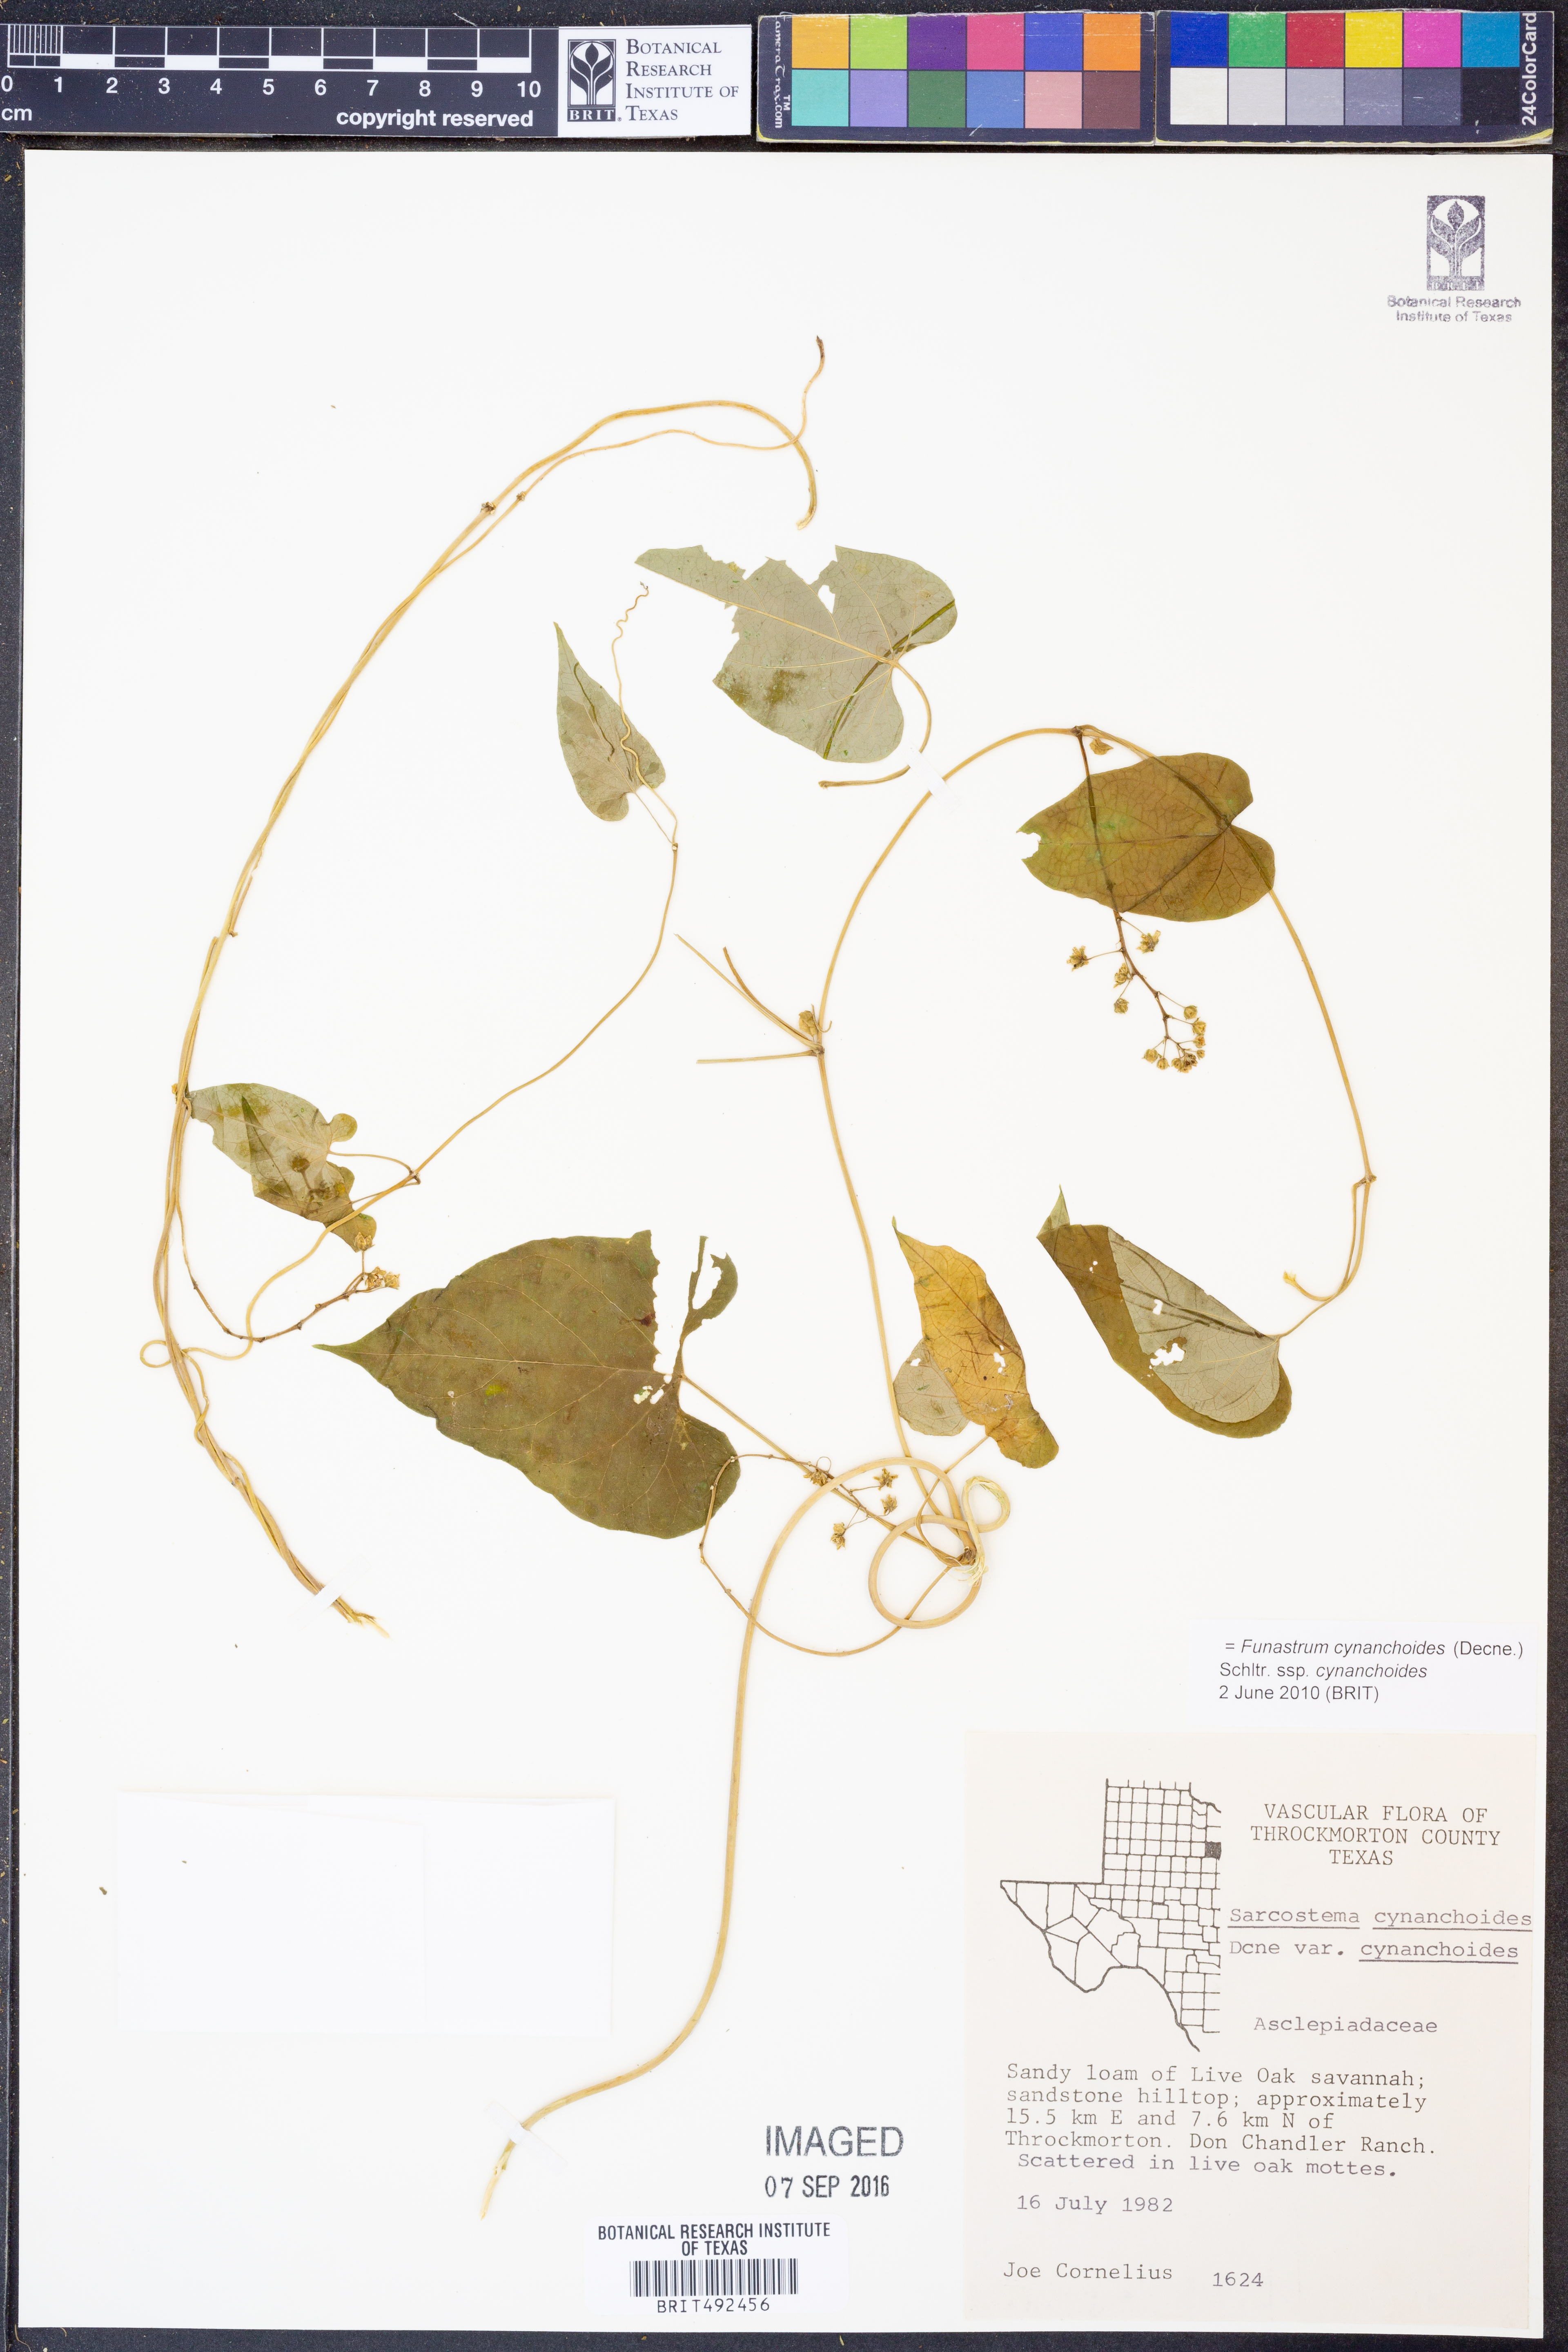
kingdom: Plantae
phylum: Tracheophyta
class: Magnoliopsida
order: Gentianales
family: Apocynaceae
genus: Funastrum
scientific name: Funastrum cynanchoides
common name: Climbing-milkweed
